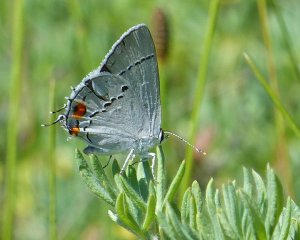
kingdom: Animalia
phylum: Arthropoda
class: Insecta
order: Lepidoptera
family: Lycaenidae
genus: Strymon
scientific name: Strymon melinus
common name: Gray Hairstreak
